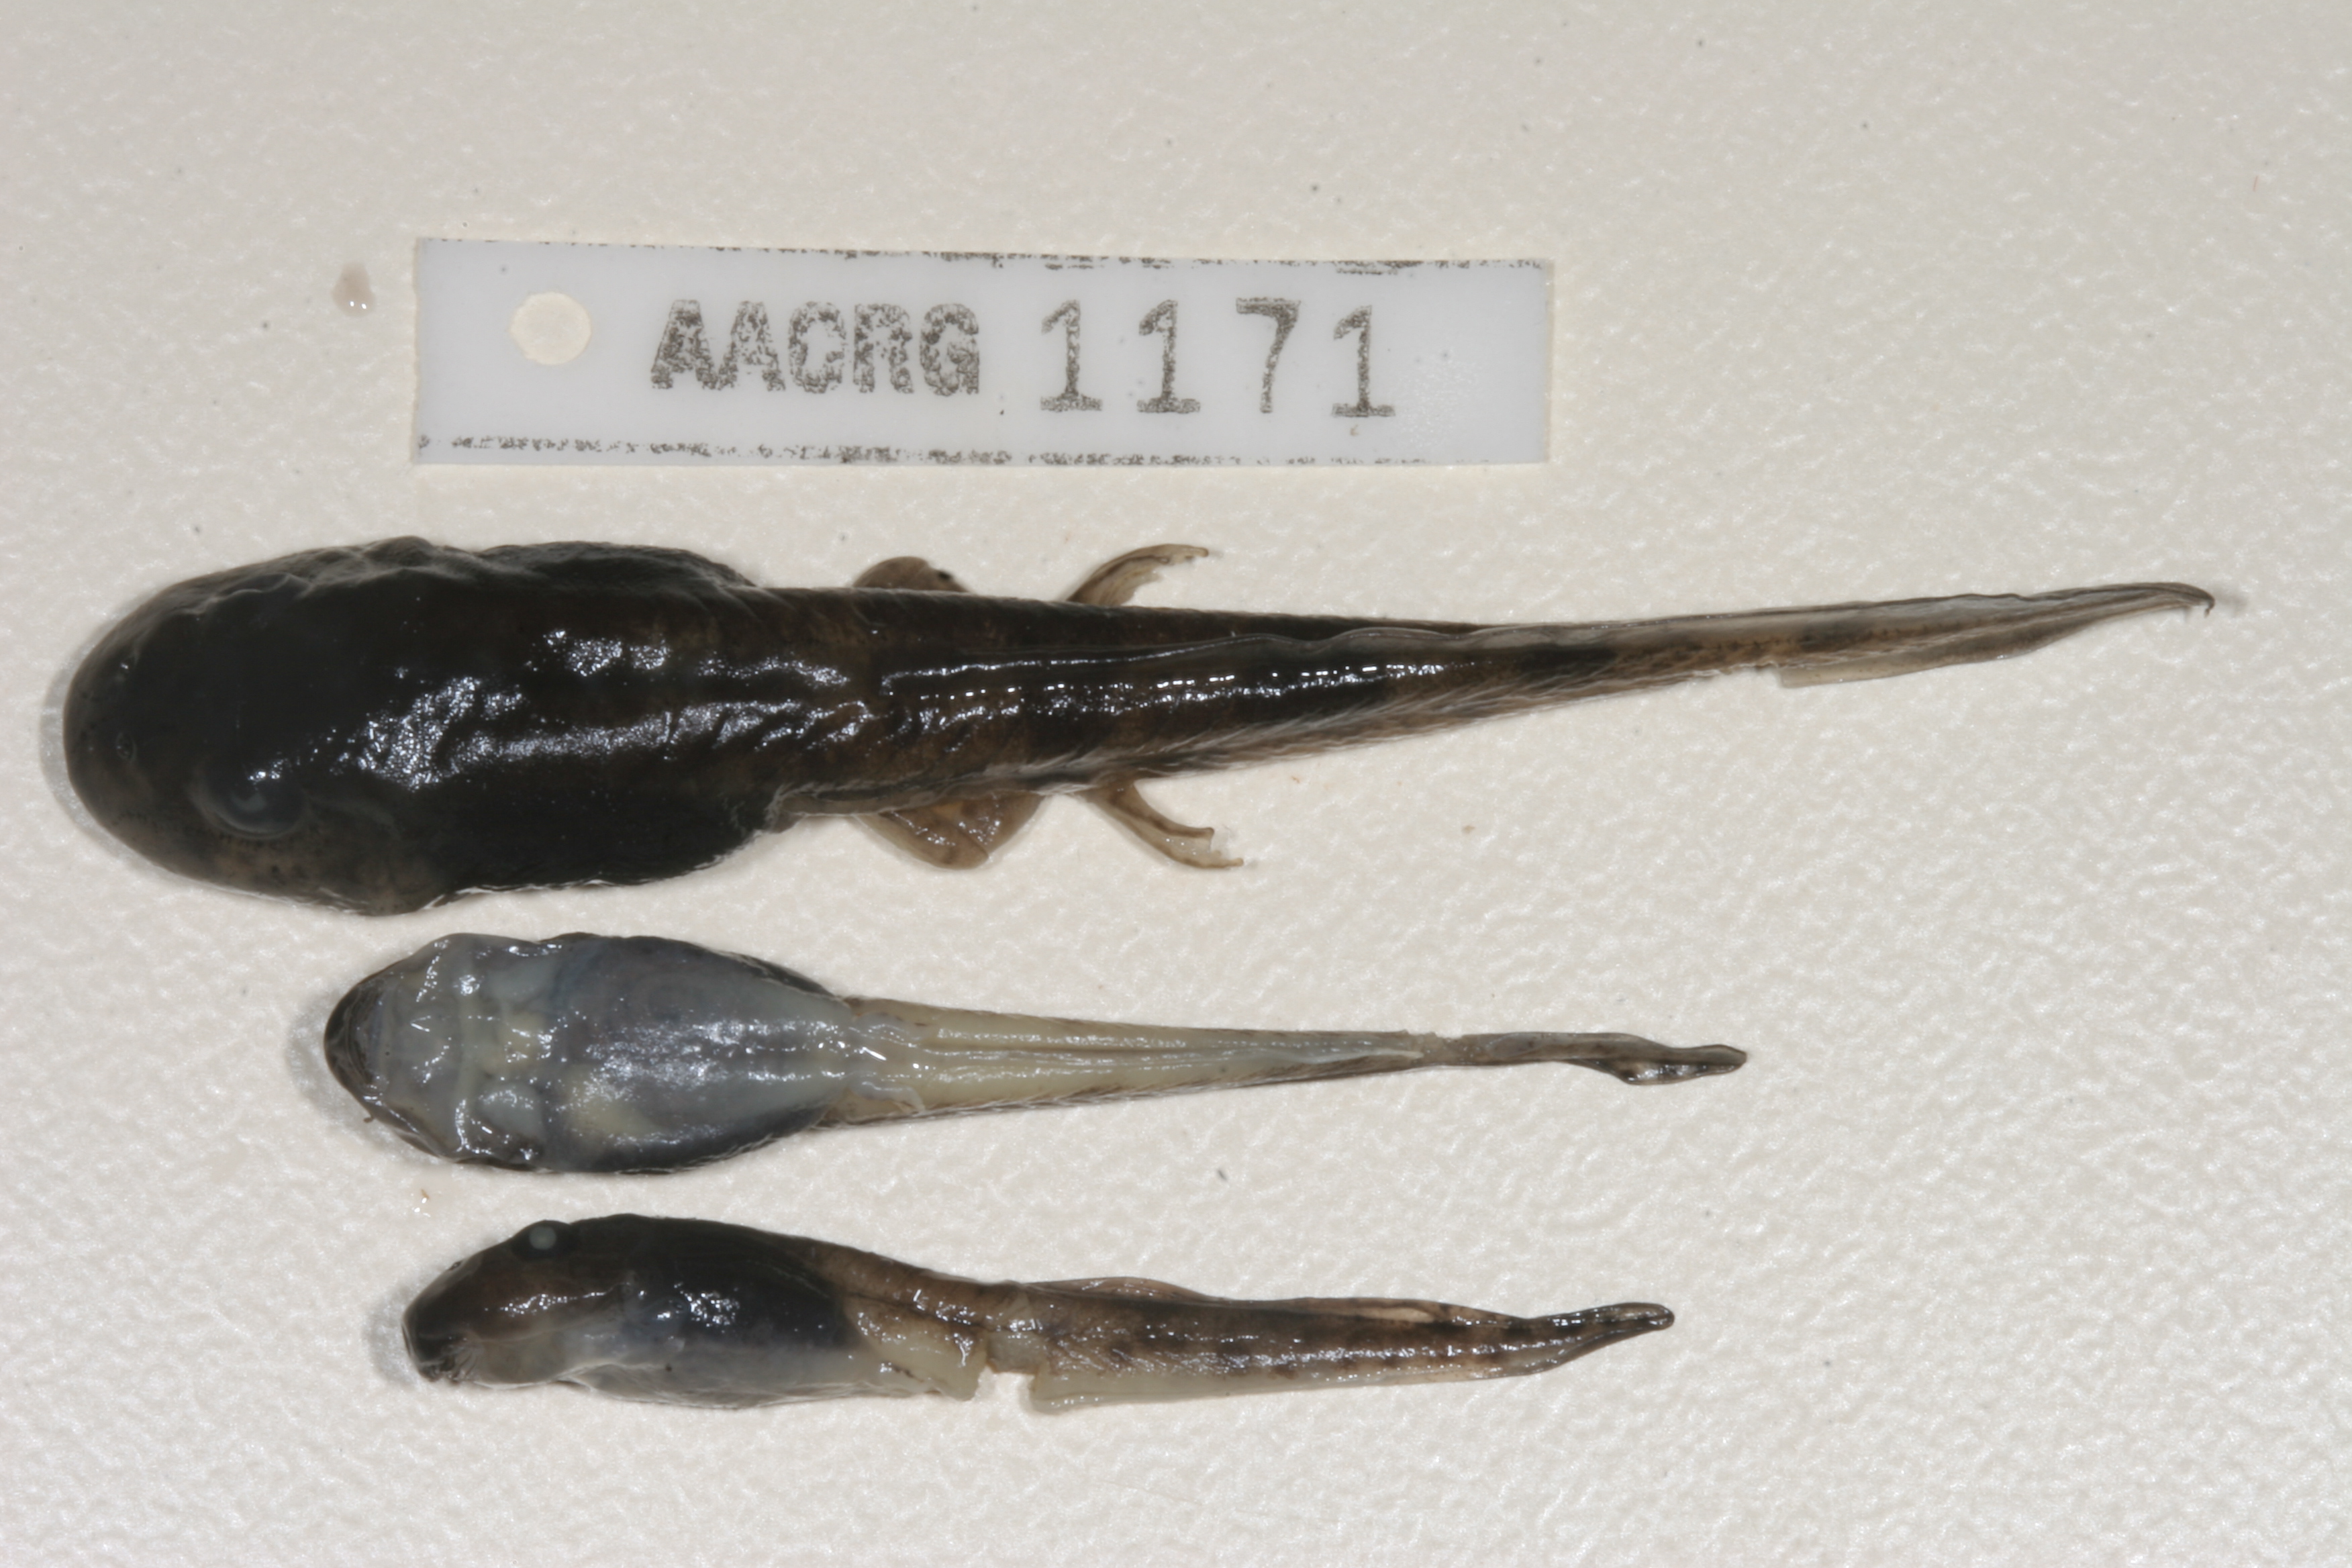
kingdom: Animalia
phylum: Chordata
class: Amphibia
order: Anura
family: Pyxicephalidae
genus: Amietia
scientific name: Amietia vertebralis
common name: Drakensberg stream frog
